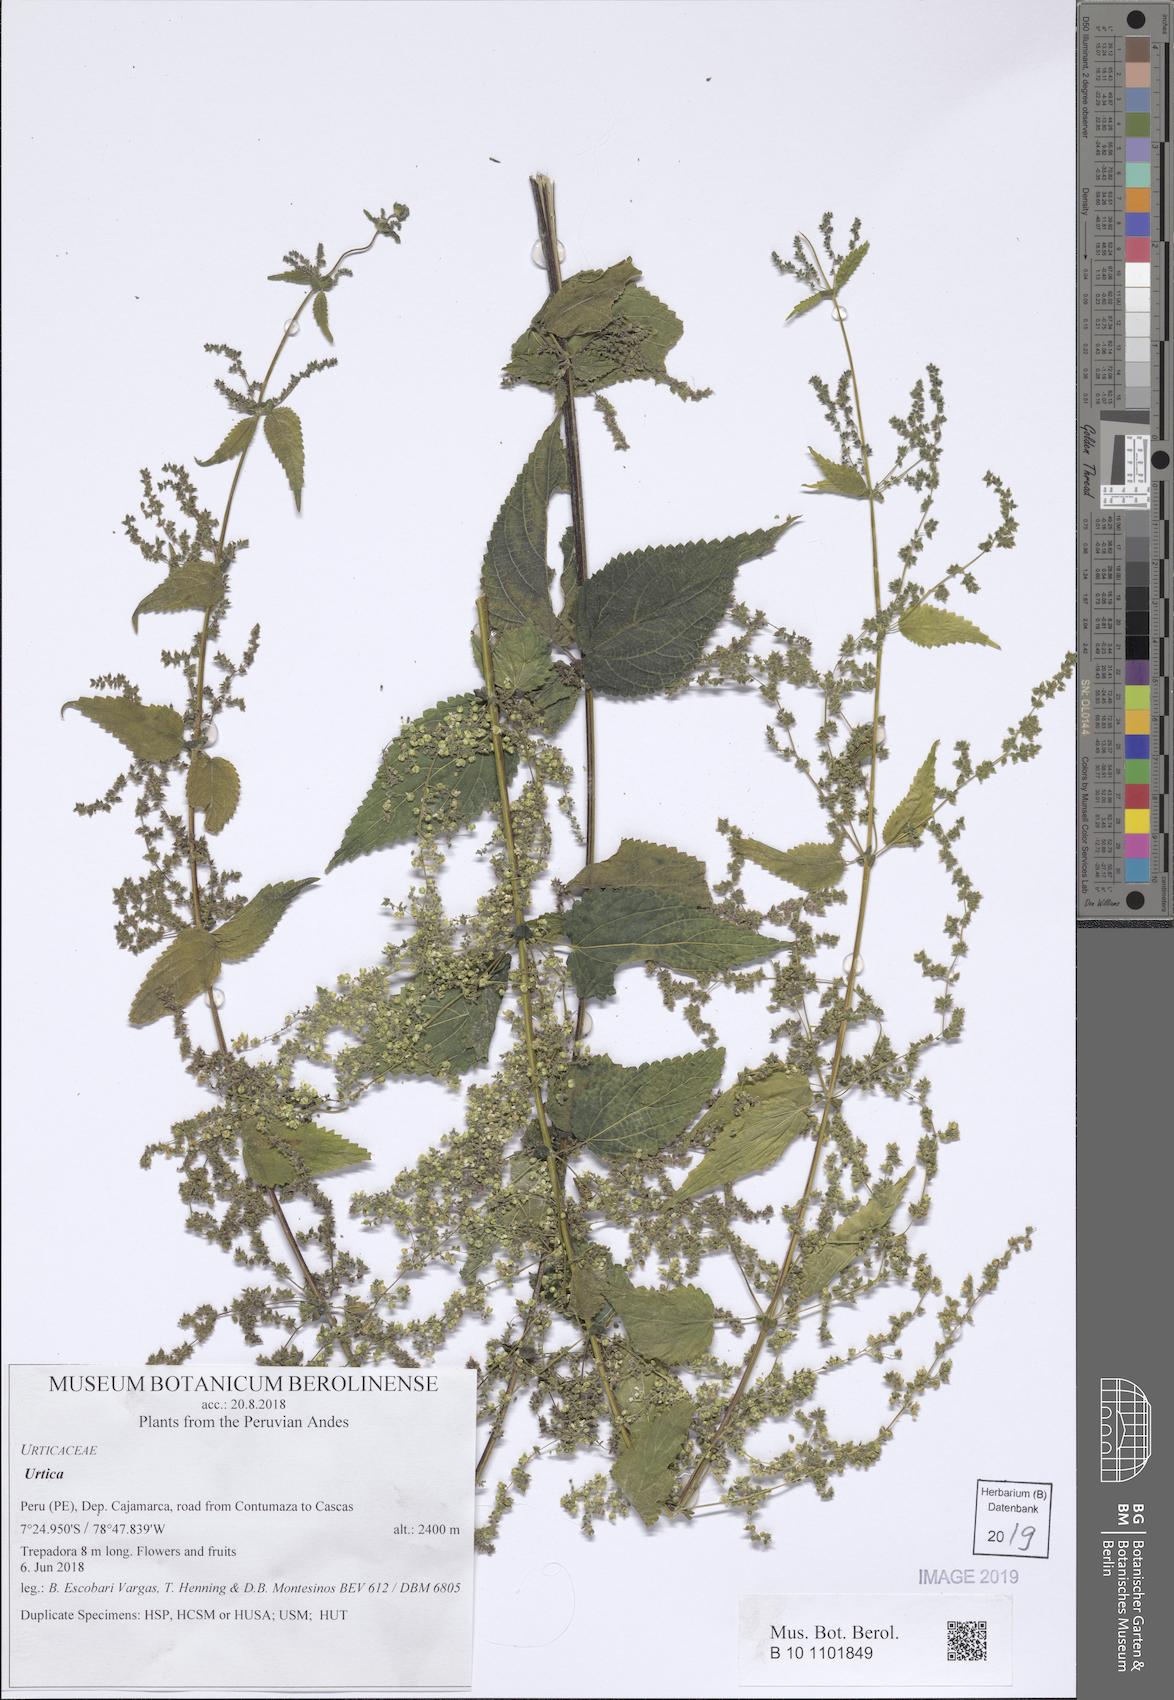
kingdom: Plantae
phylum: Tracheophyta
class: Magnoliopsida
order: Rosales
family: Urticaceae
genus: Urtica
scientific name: Urtica
